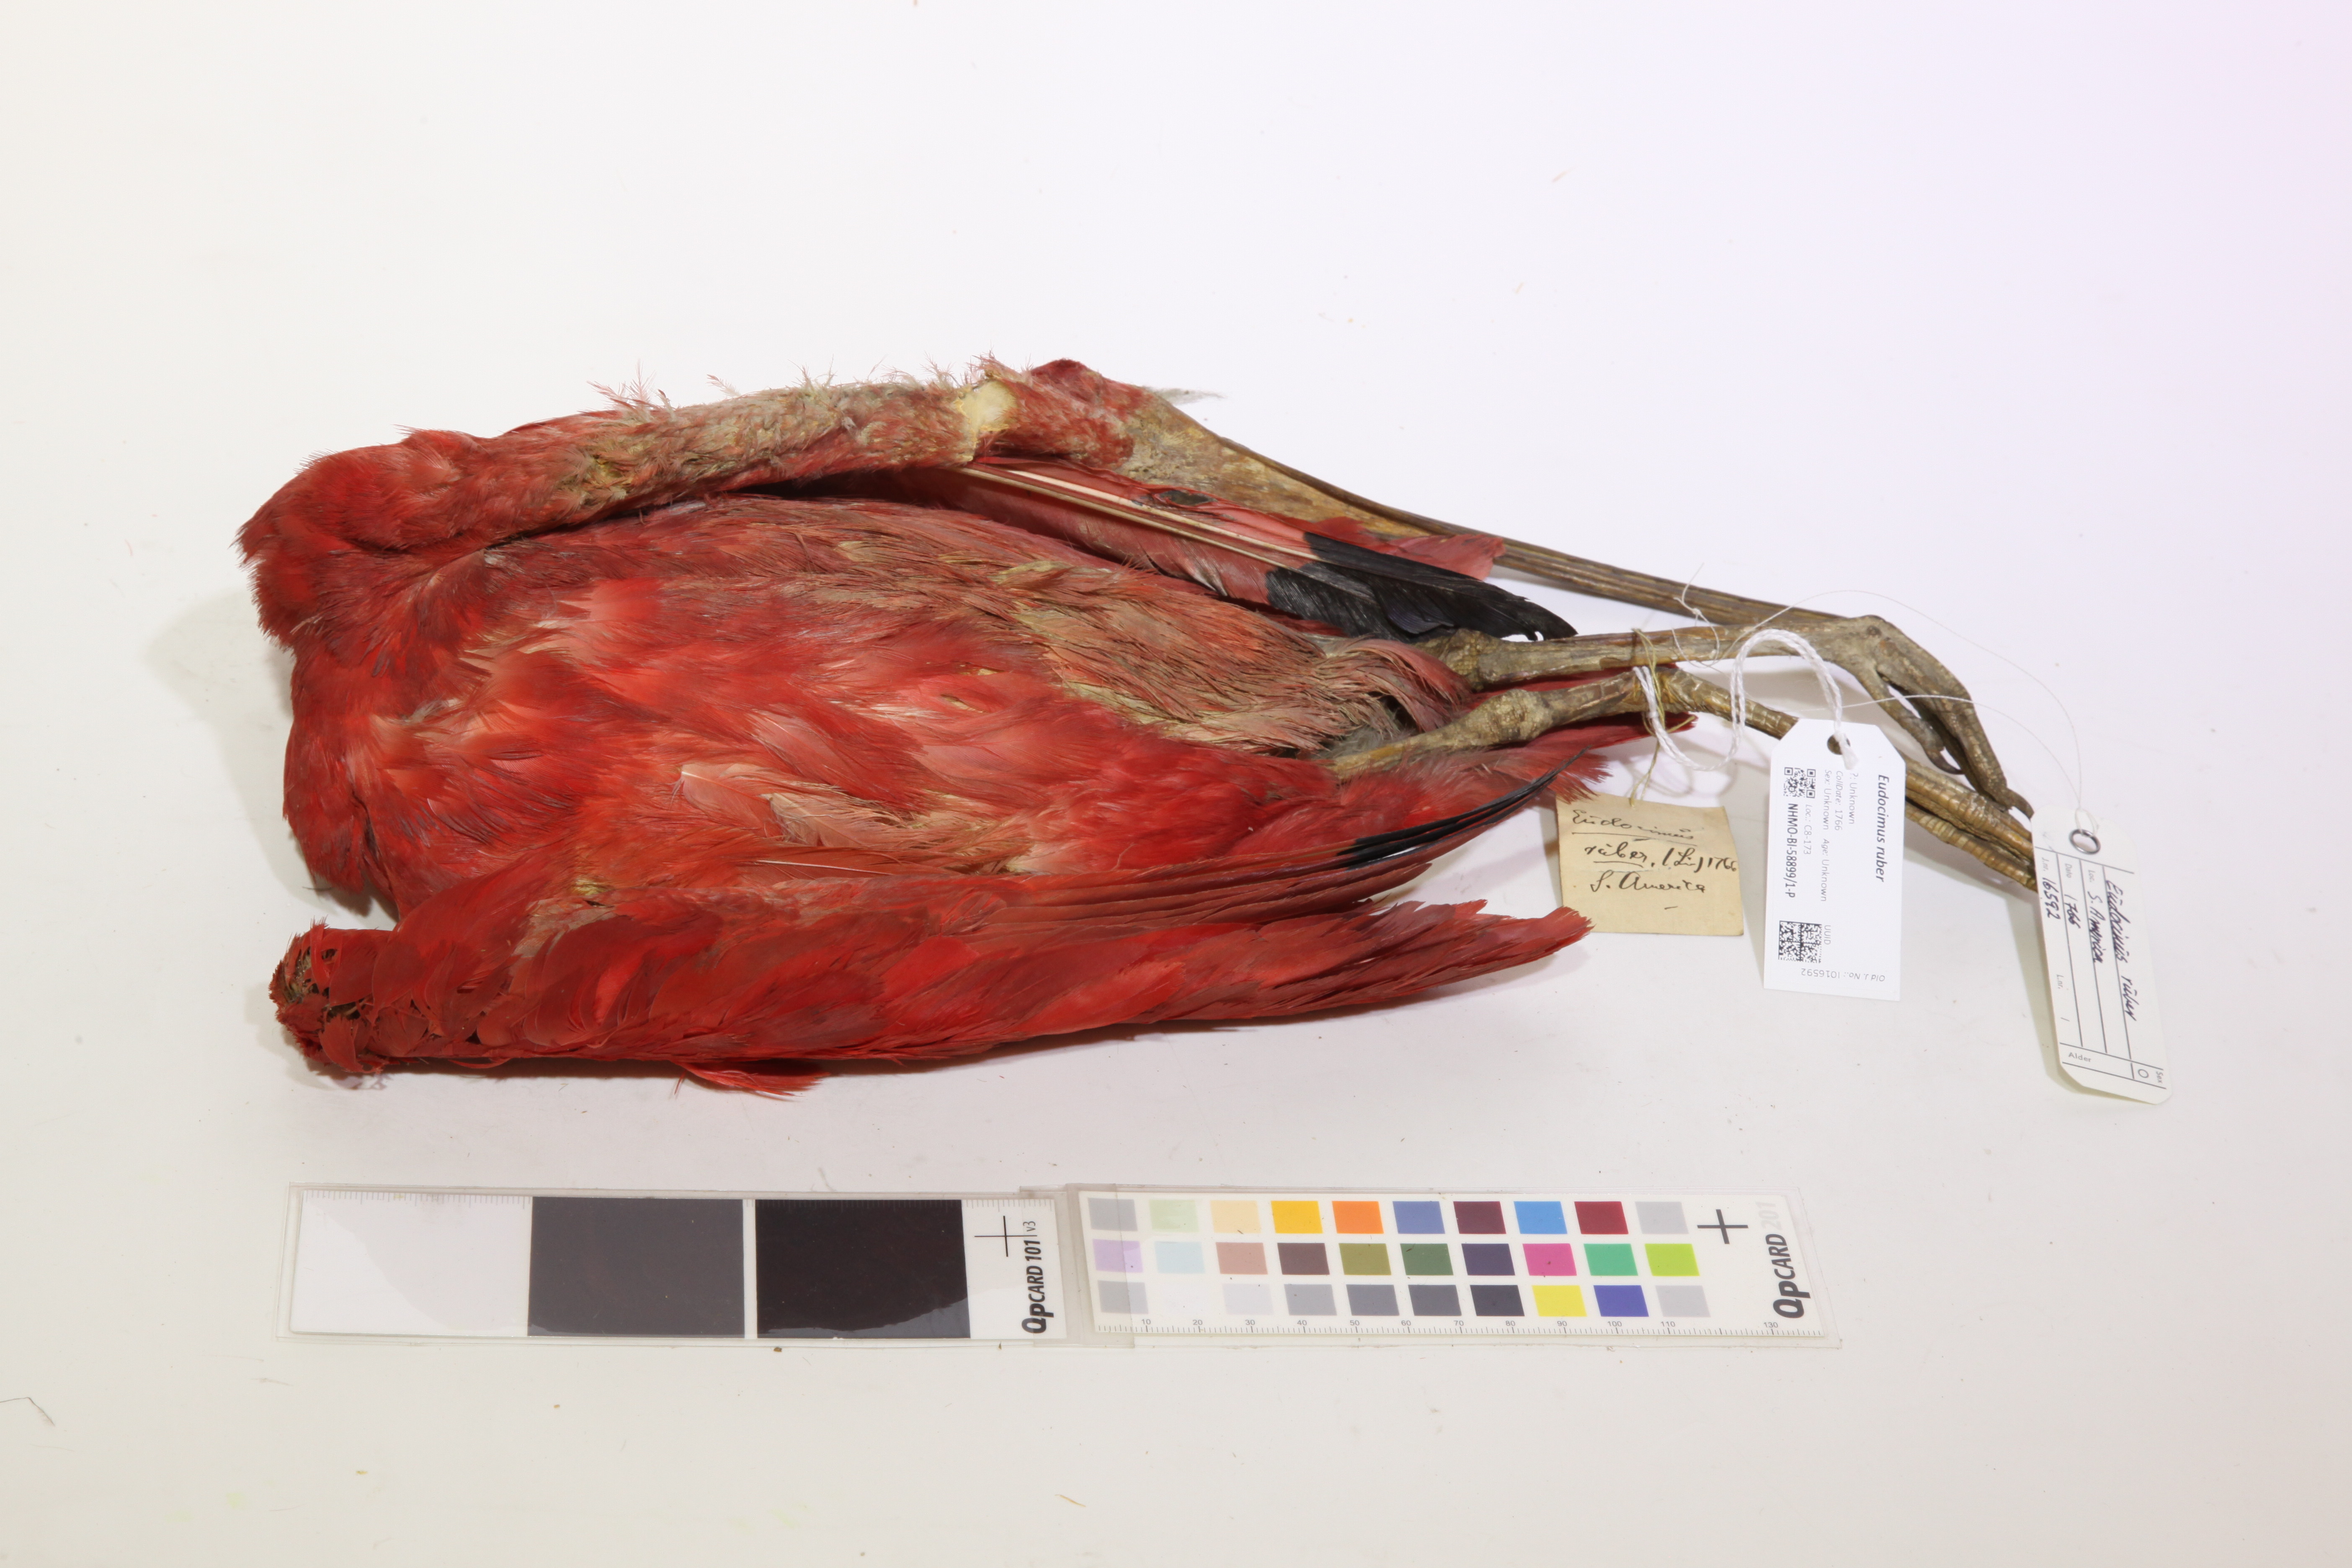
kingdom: Animalia
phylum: Chordata
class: Aves
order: Pelecaniformes
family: Threskiornithidae
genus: Eudocimus
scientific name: Eudocimus ruber
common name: Scarlet ibis
